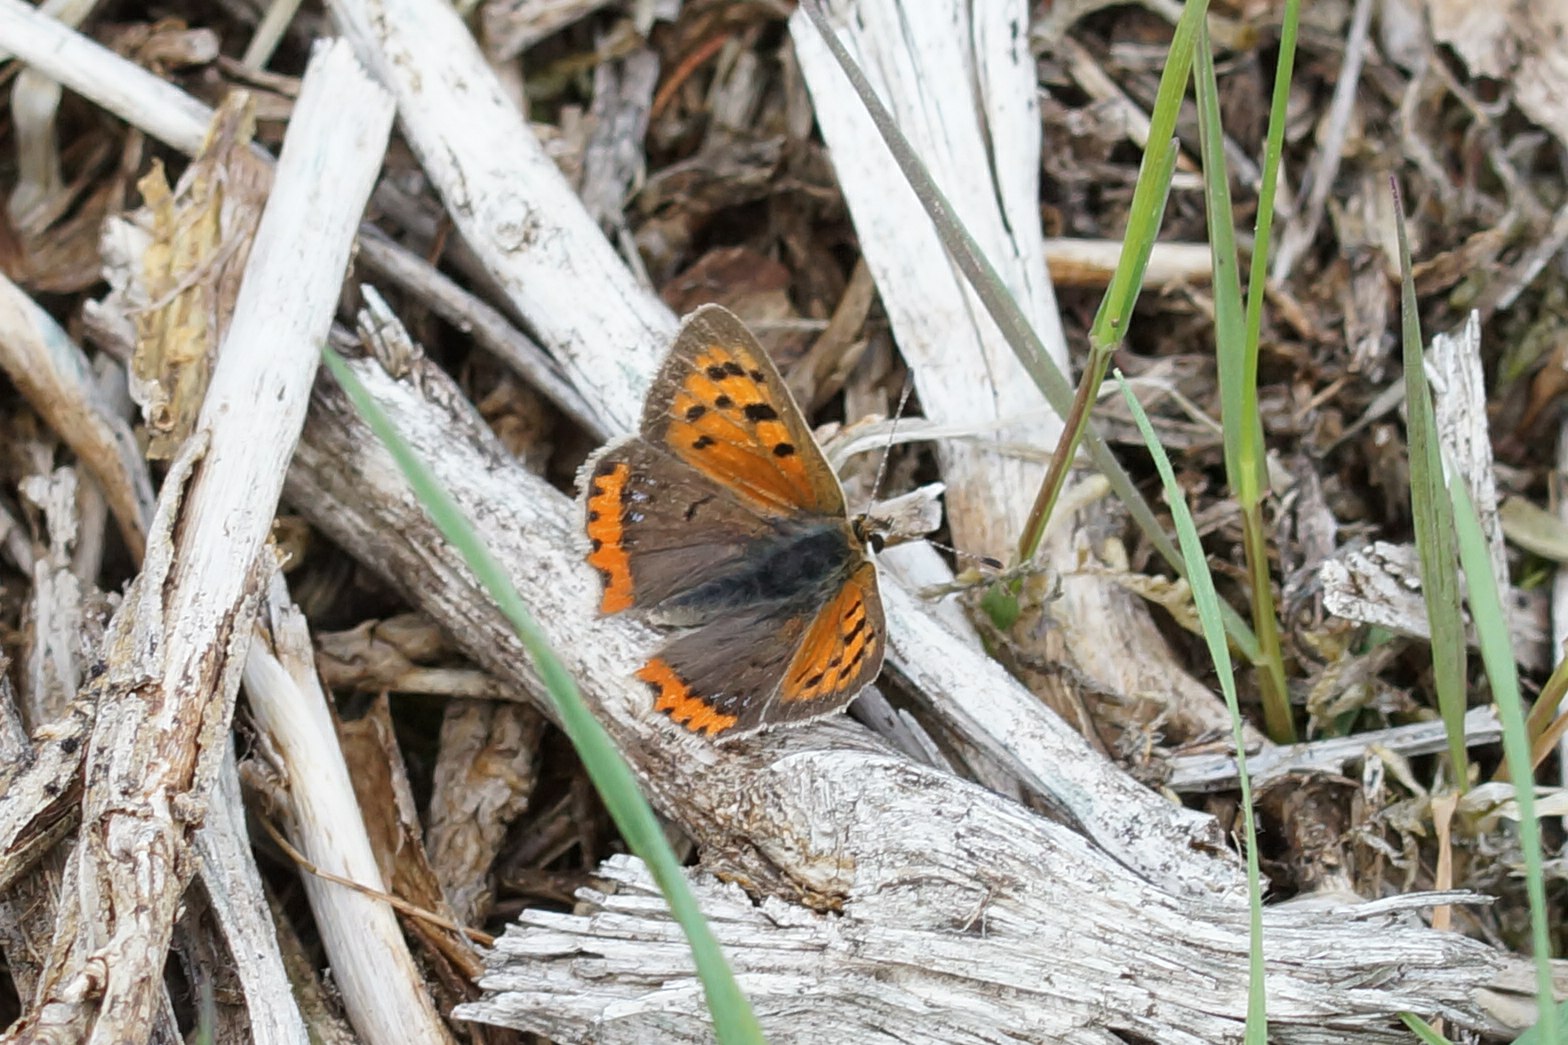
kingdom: Animalia
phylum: Arthropoda
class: Insecta
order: Lepidoptera
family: Lycaenidae
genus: Lycaena
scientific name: Lycaena phlaeas
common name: Lille ildfugl
